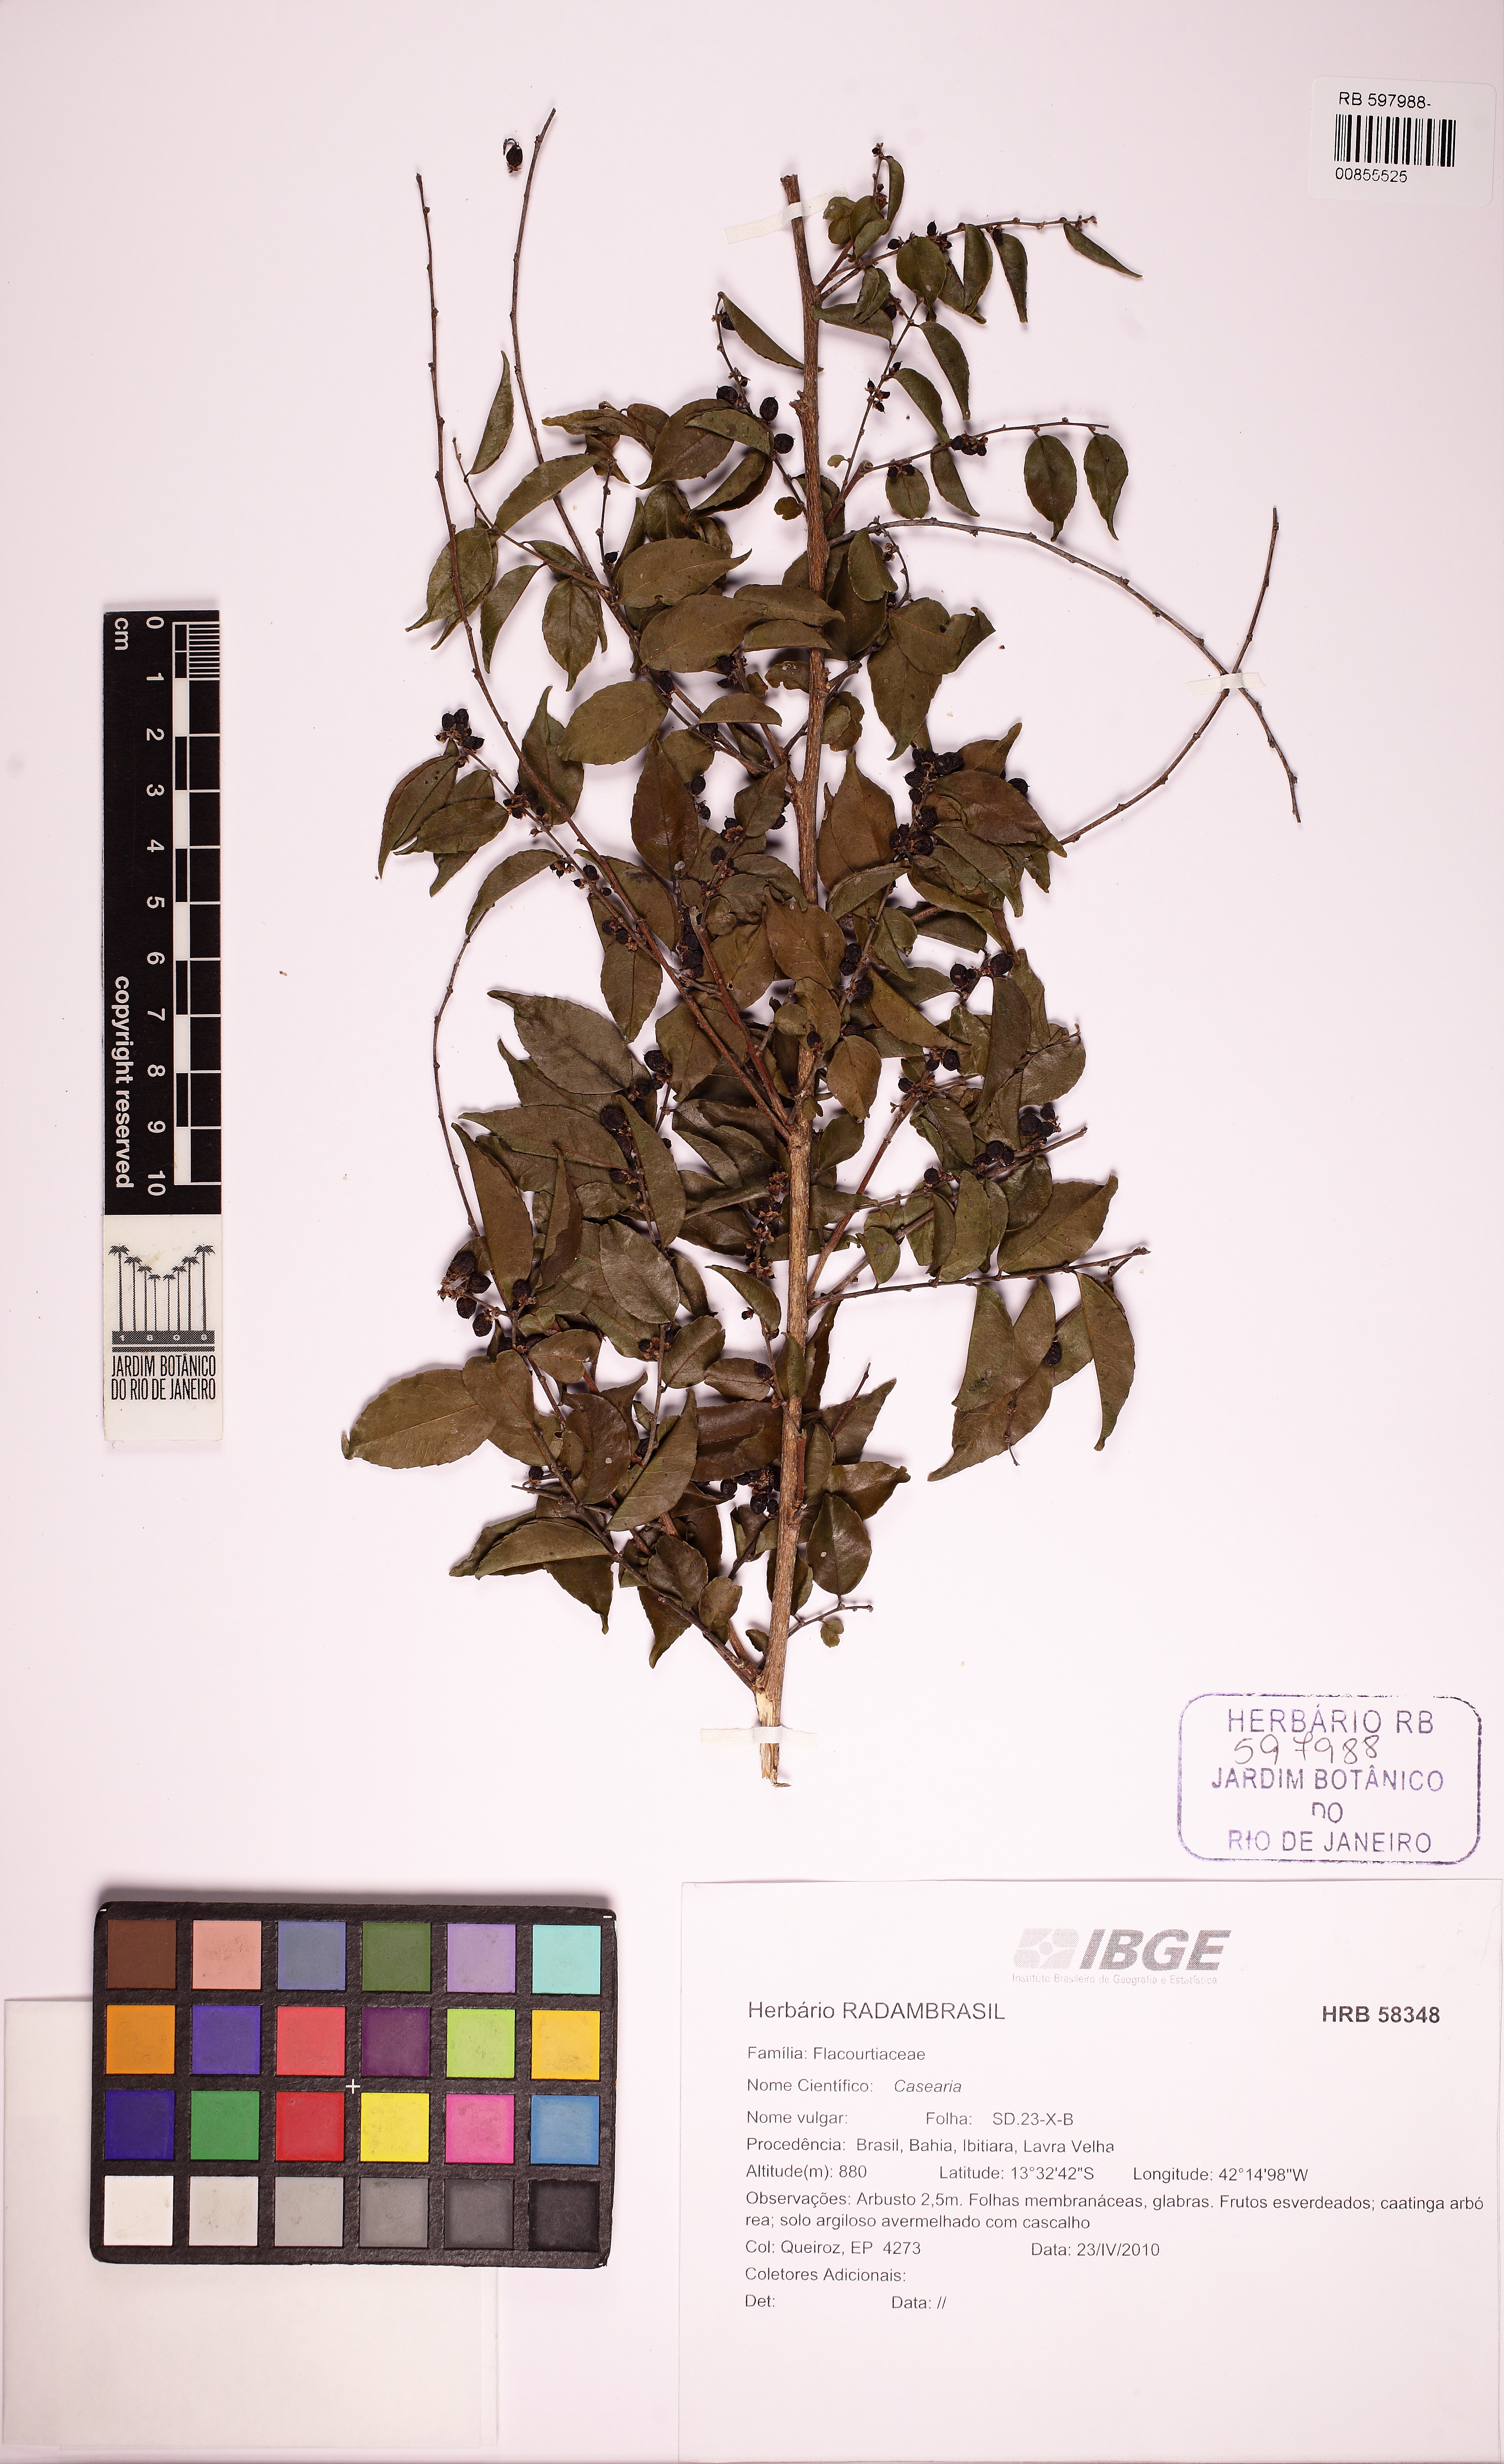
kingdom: Plantae
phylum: Tracheophyta
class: Magnoliopsida
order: Malpighiales
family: Salicaceae
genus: Casearia
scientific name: Casearia sylvestris
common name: Wild sage
